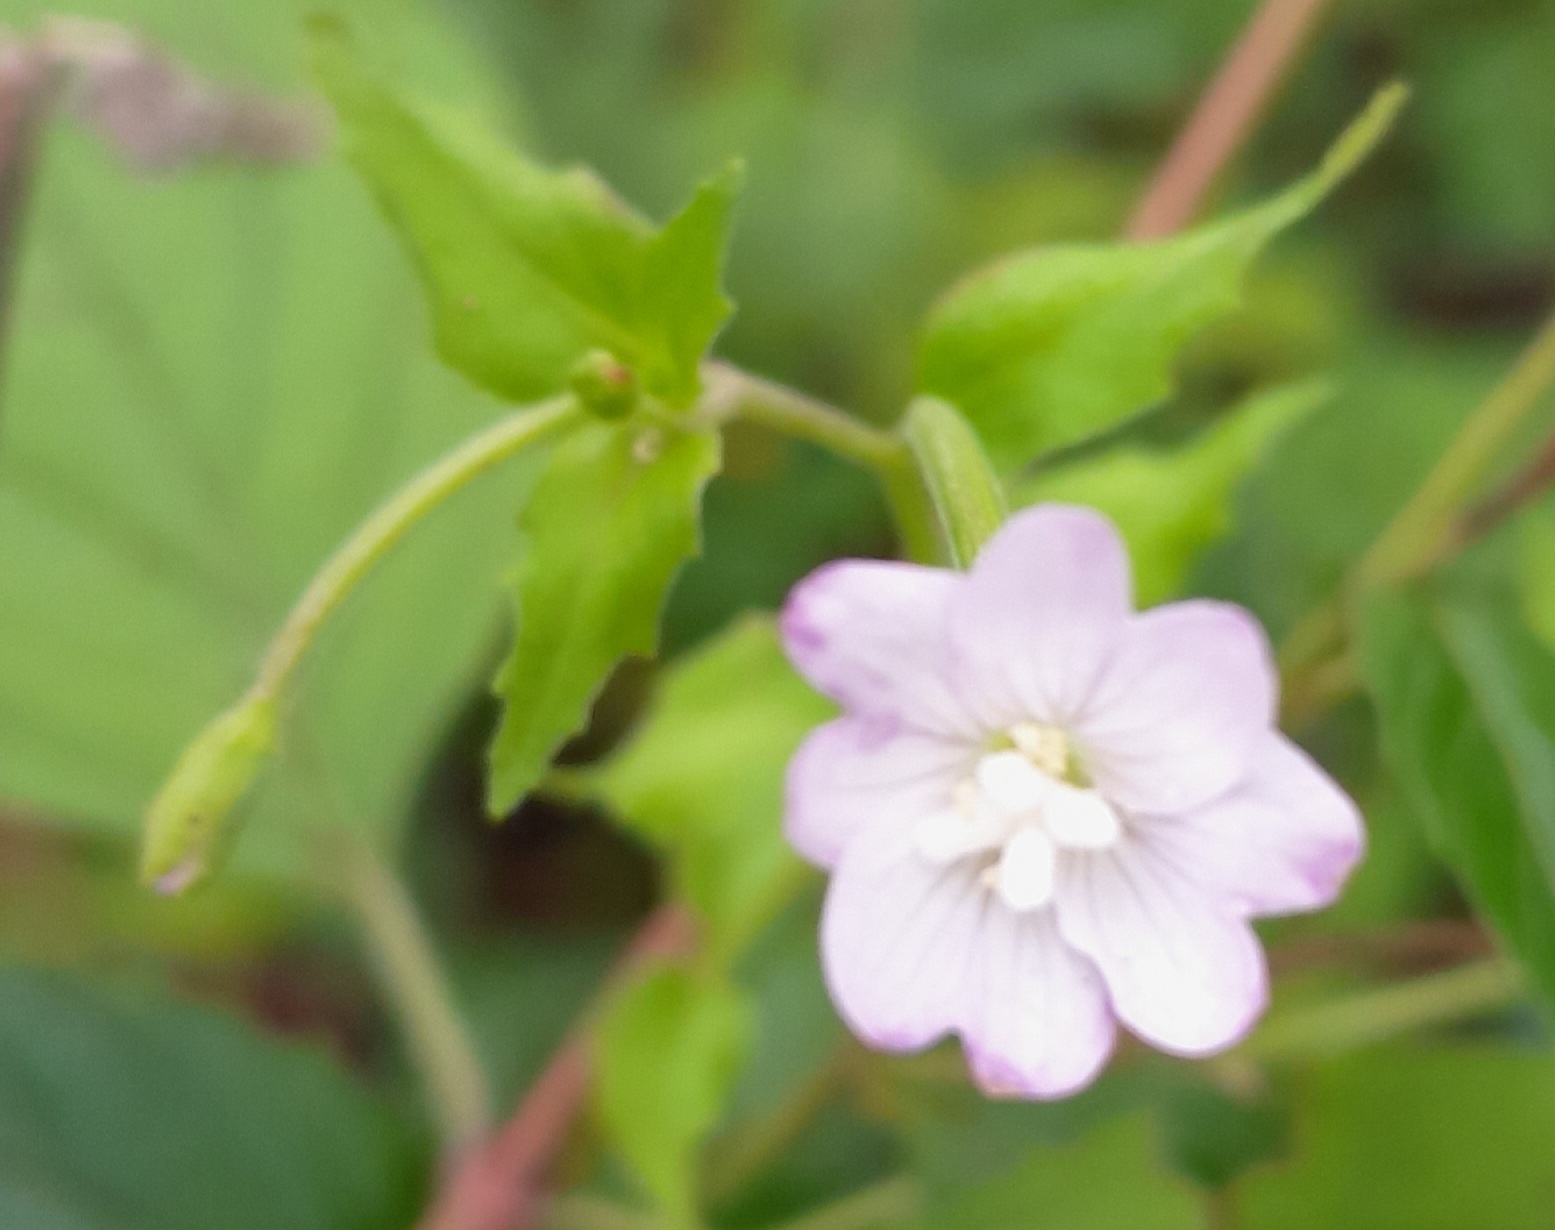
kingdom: Plantae
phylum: Tracheophyta
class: Magnoliopsida
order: Myrtales
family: Onagraceae
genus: Epilobium
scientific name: Epilobium montanum
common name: Glat dueurt
